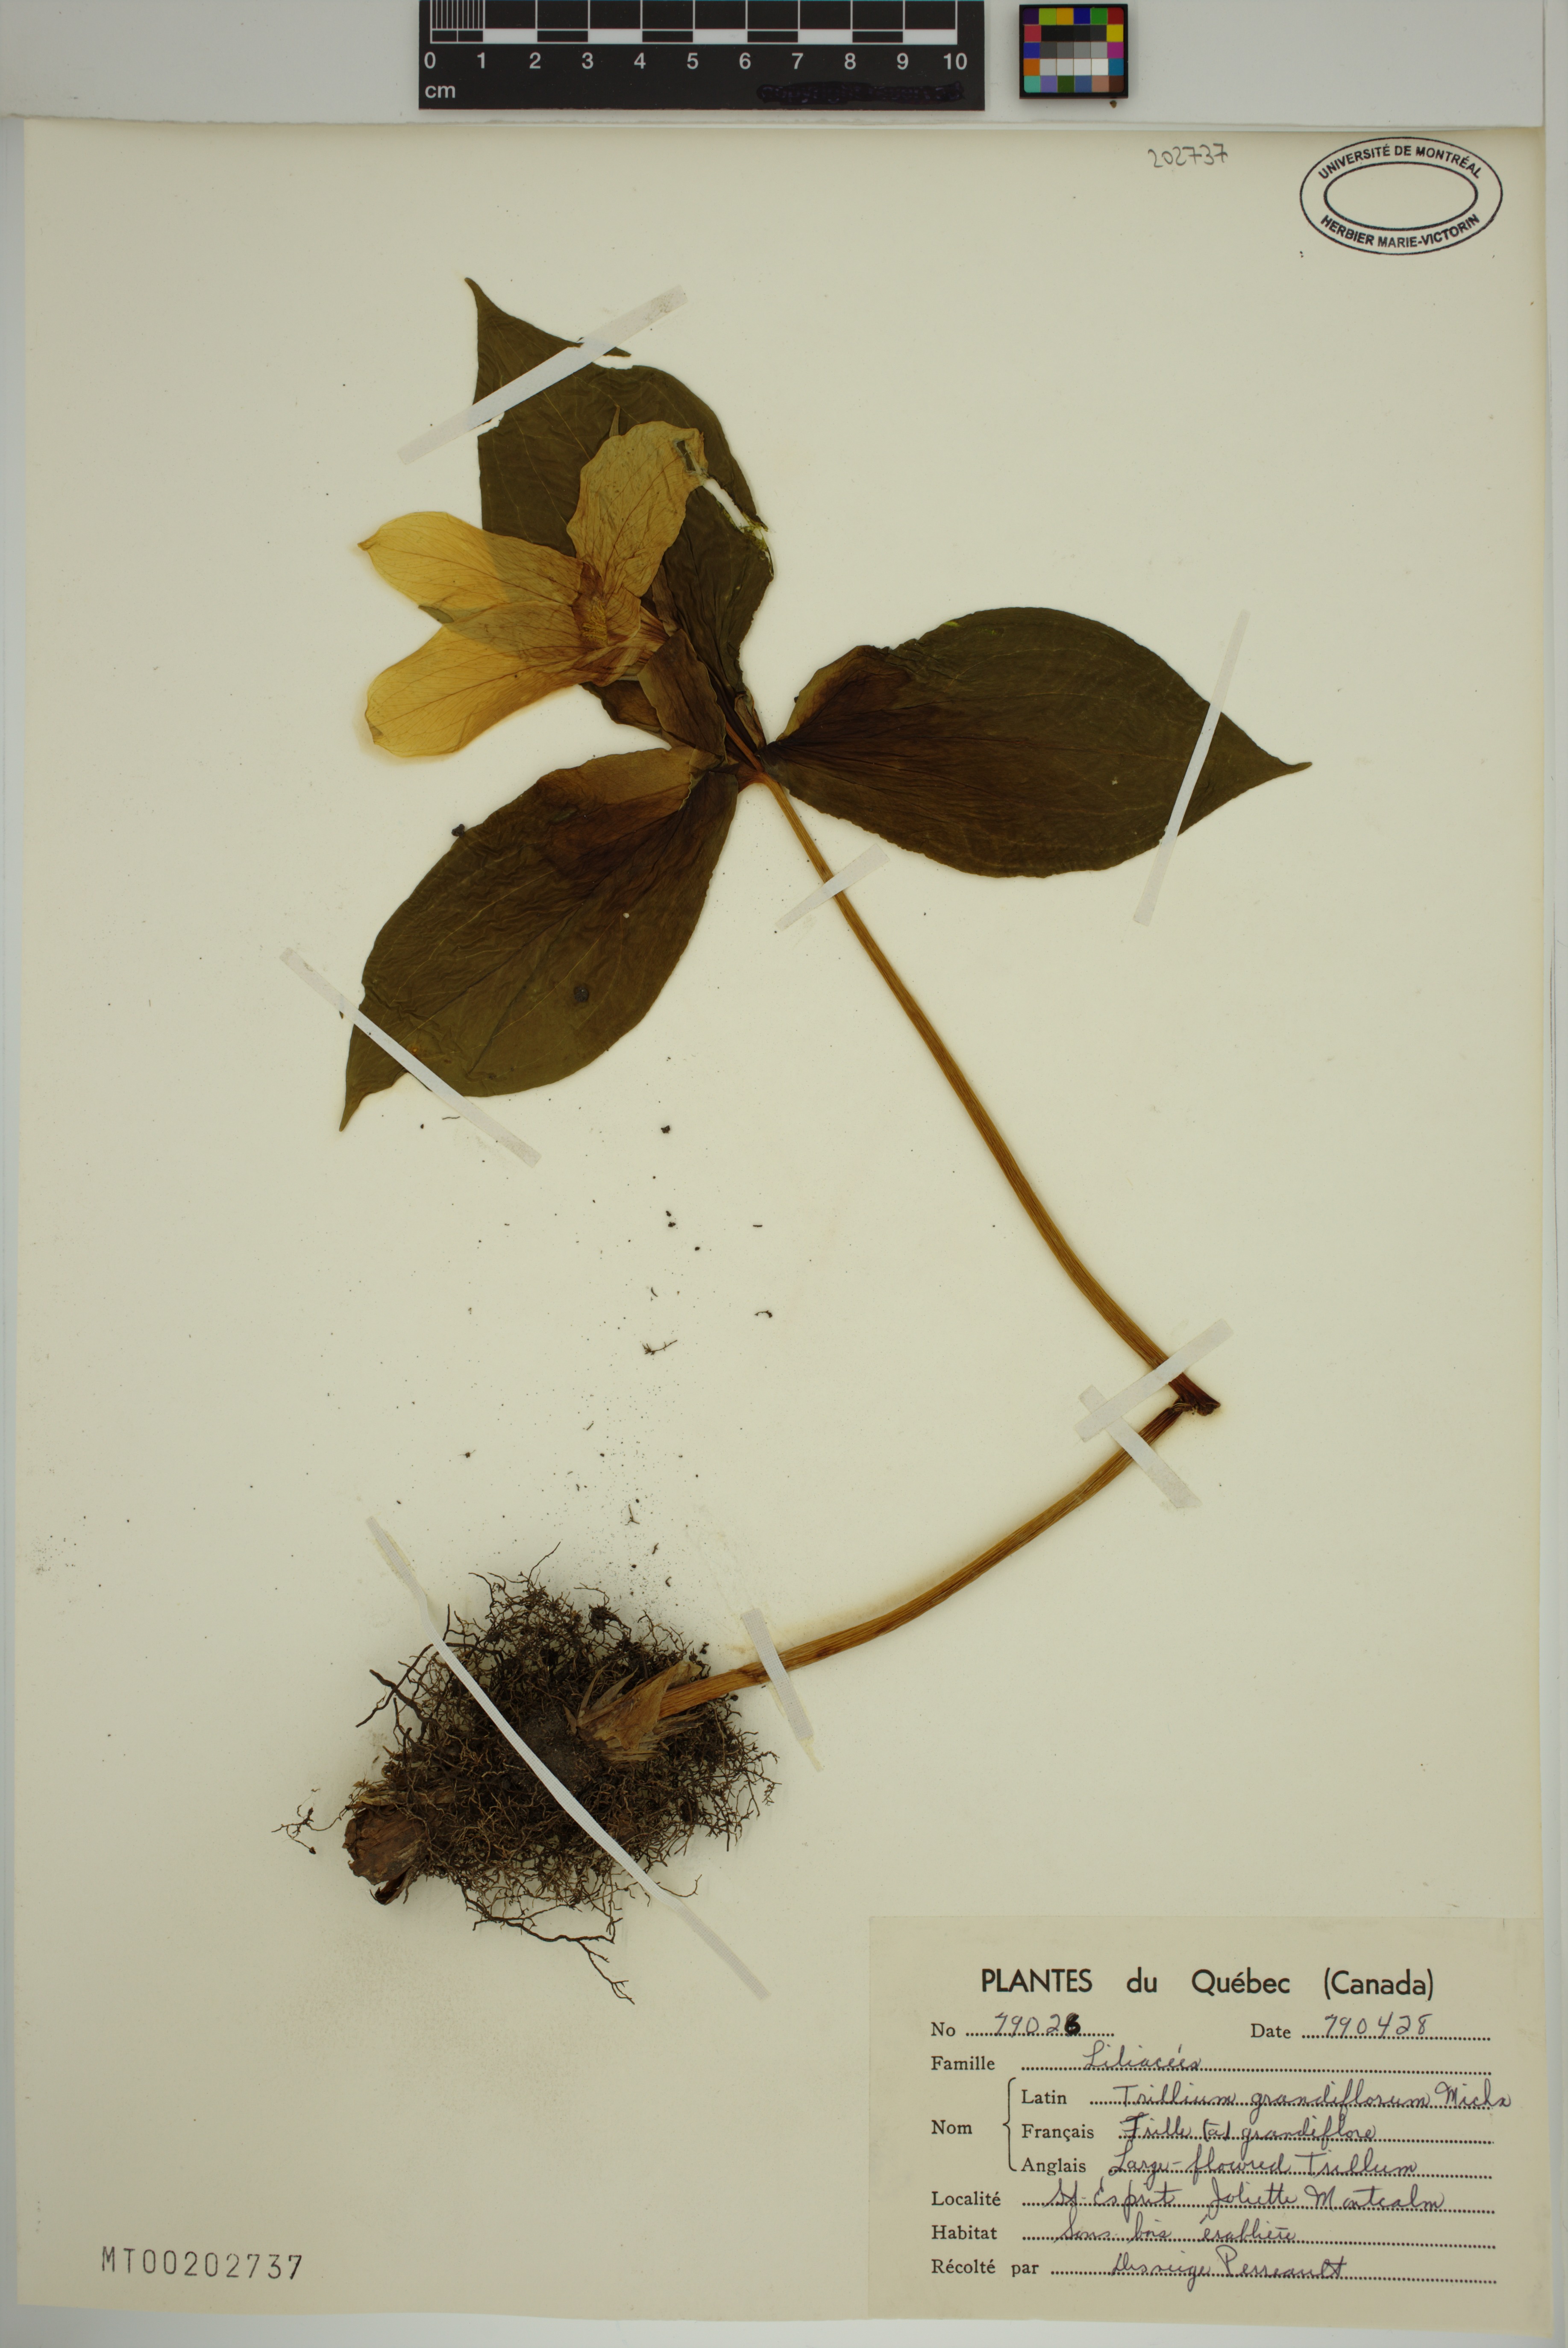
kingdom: Plantae
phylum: Tracheophyta
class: Liliopsida
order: Liliales
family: Melanthiaceae
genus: Trillium
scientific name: Trillium grandiflorum
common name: Great white trillium
